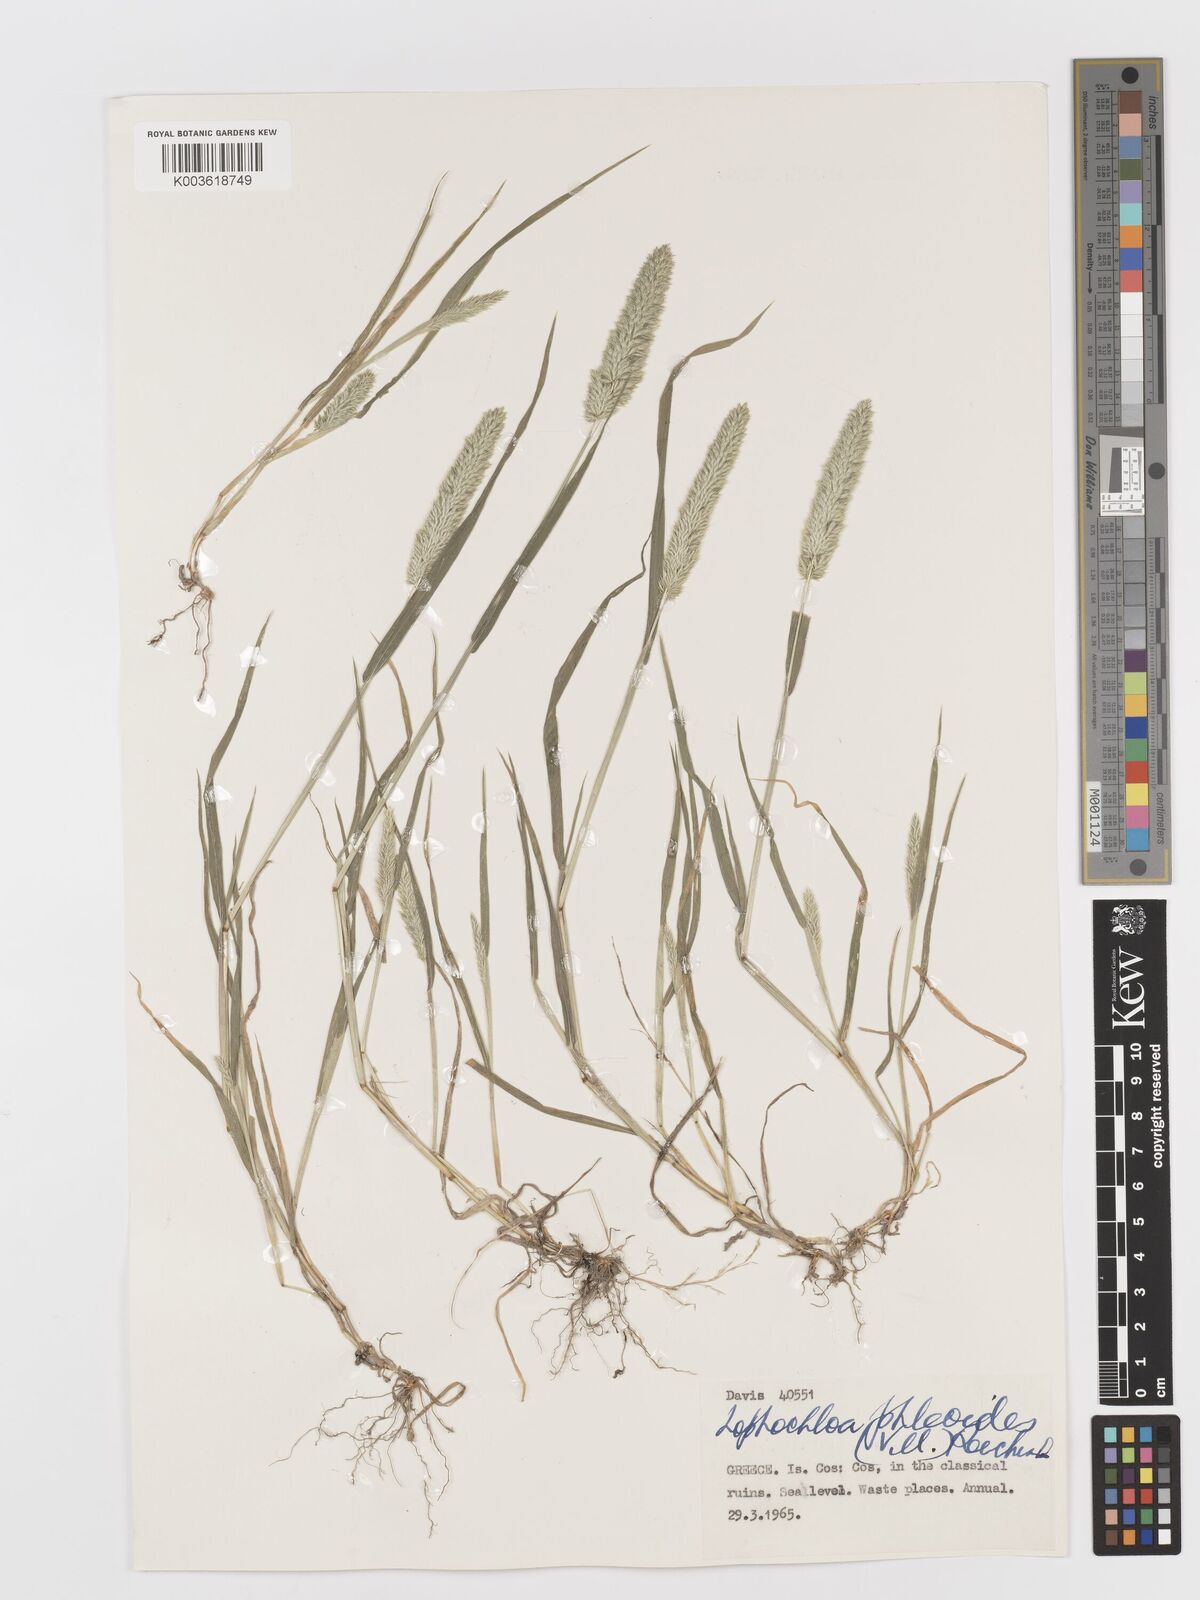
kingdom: Plantae
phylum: Tracheophyta
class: Liliopsida
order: Poales
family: Poaceae
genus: Rostraria
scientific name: Rostraria cristata
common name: Mediterranean hair-grass
